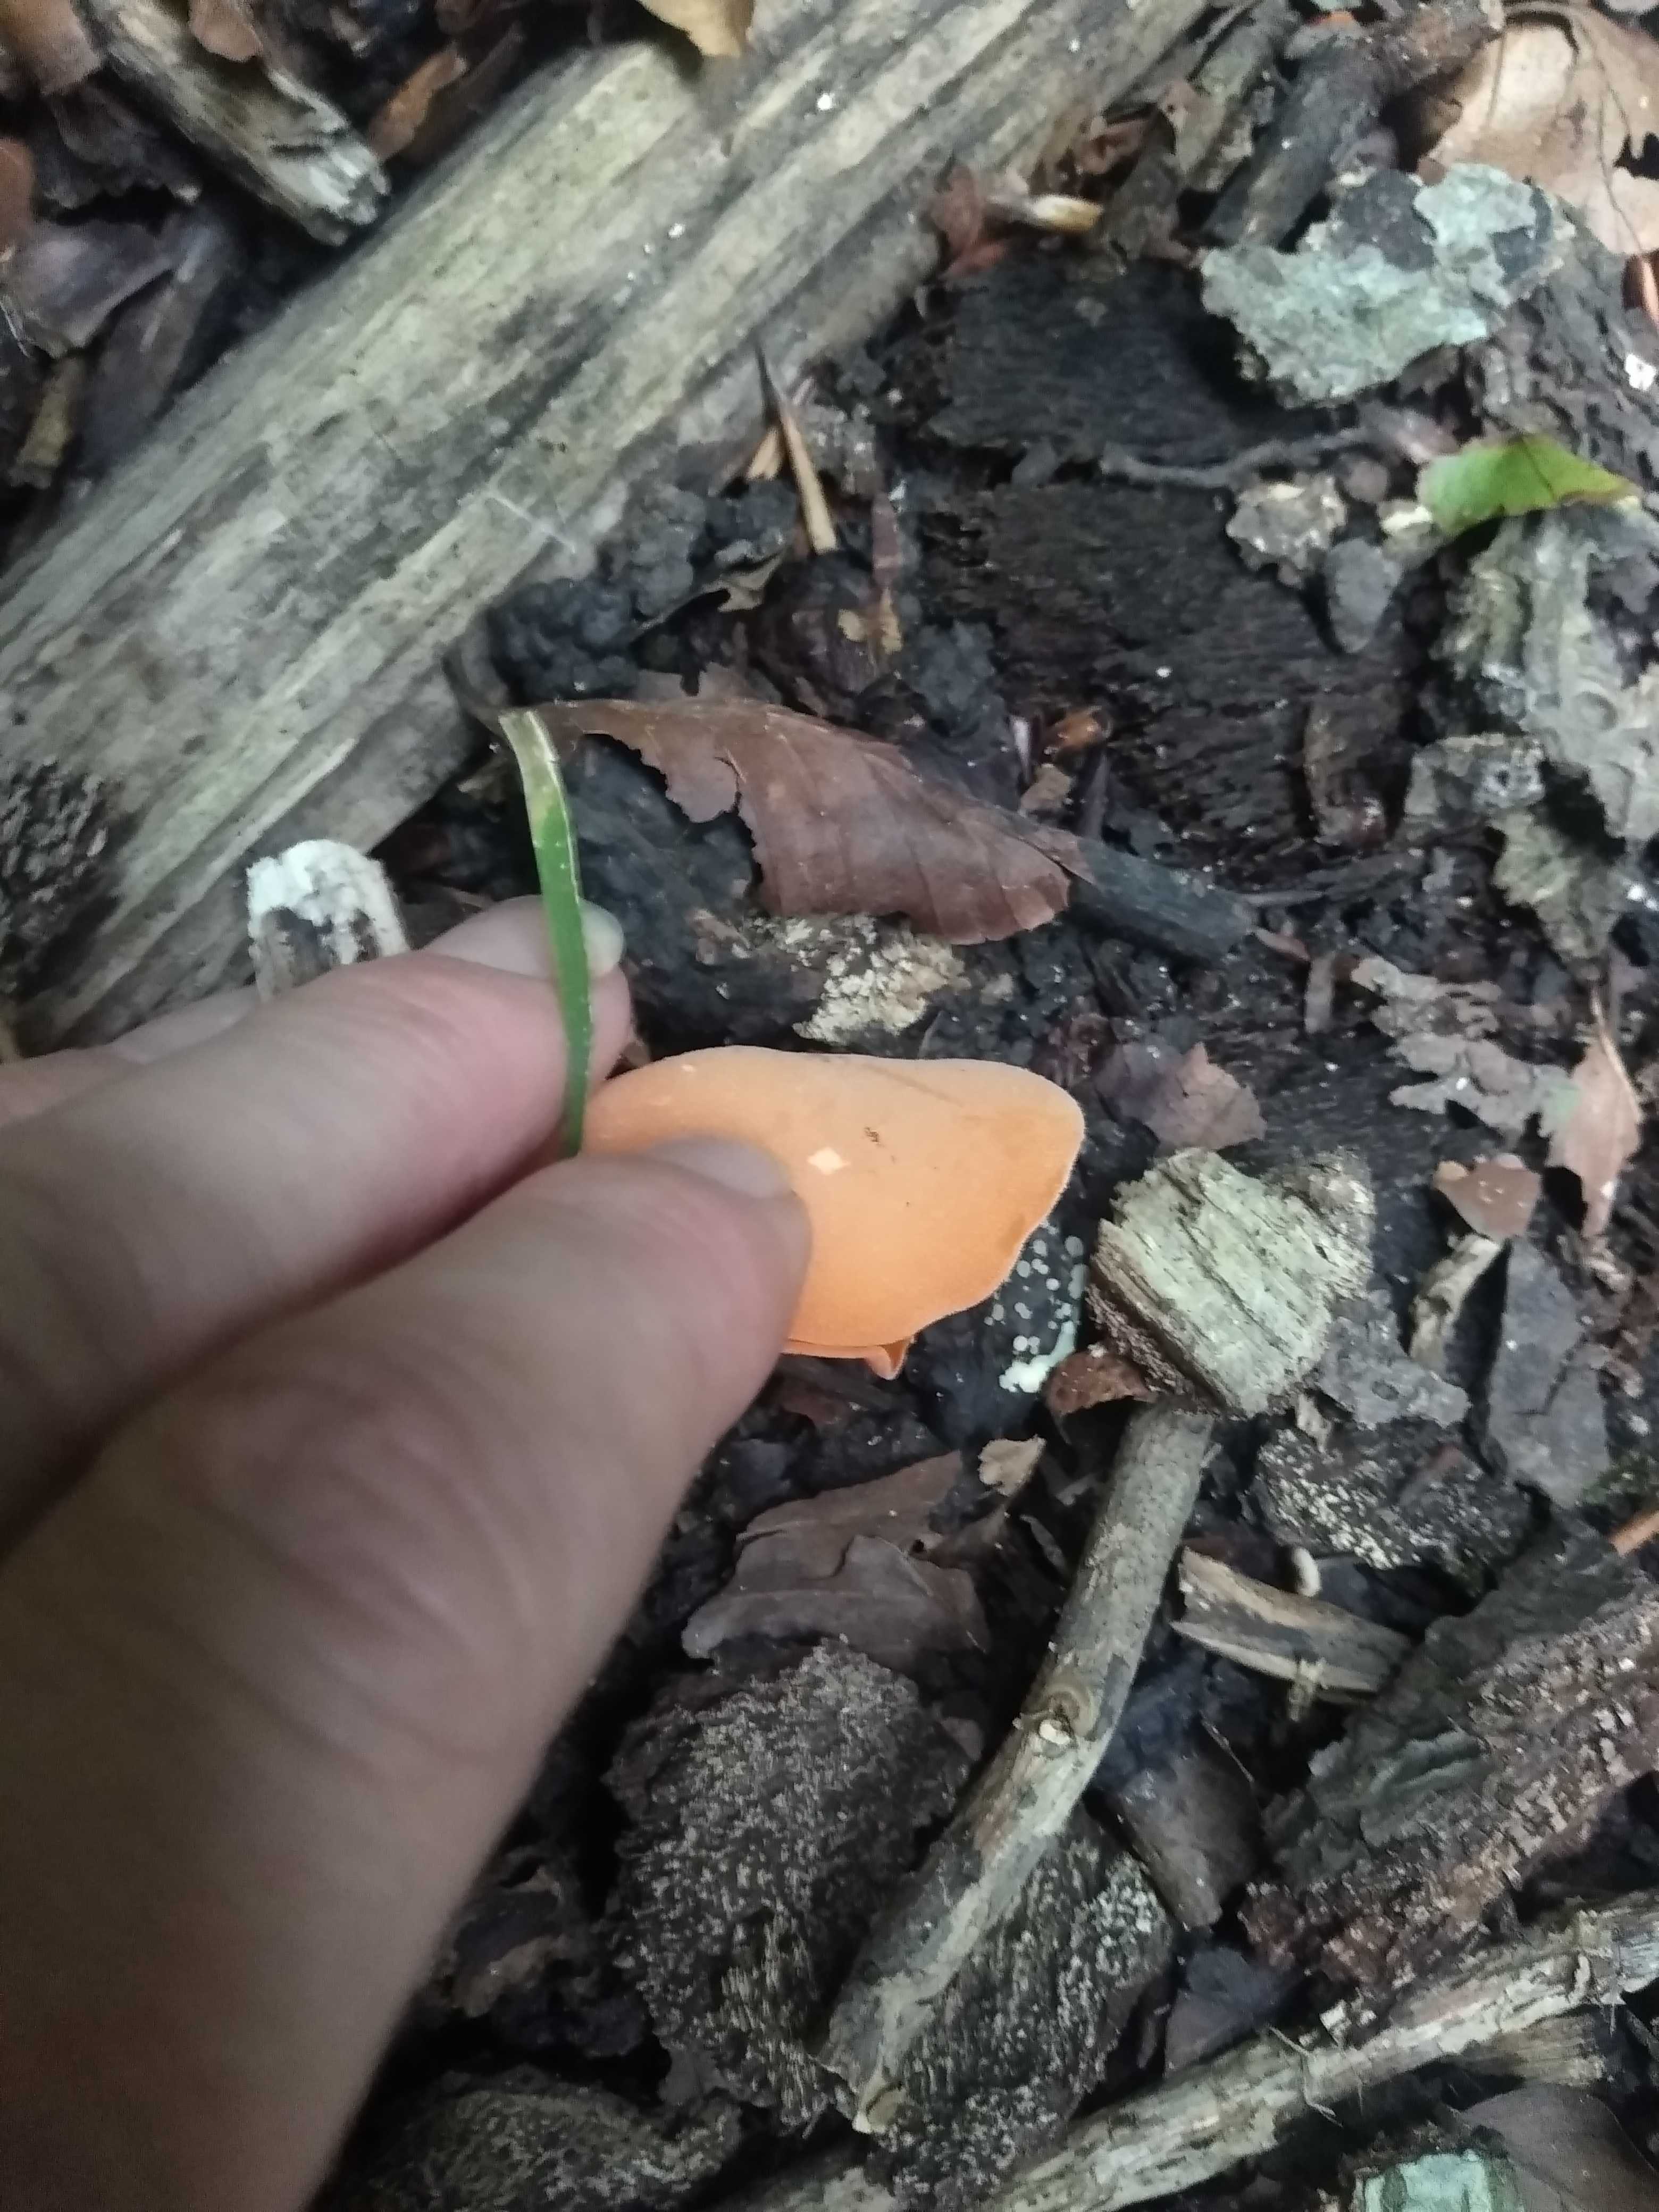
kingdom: Fungi
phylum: Ascomycota
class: Pezizomycetes
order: Pezizales
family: Pyronemataceae
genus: Aleuria
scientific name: Aleuria aurantia
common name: almindelig orangebæger
